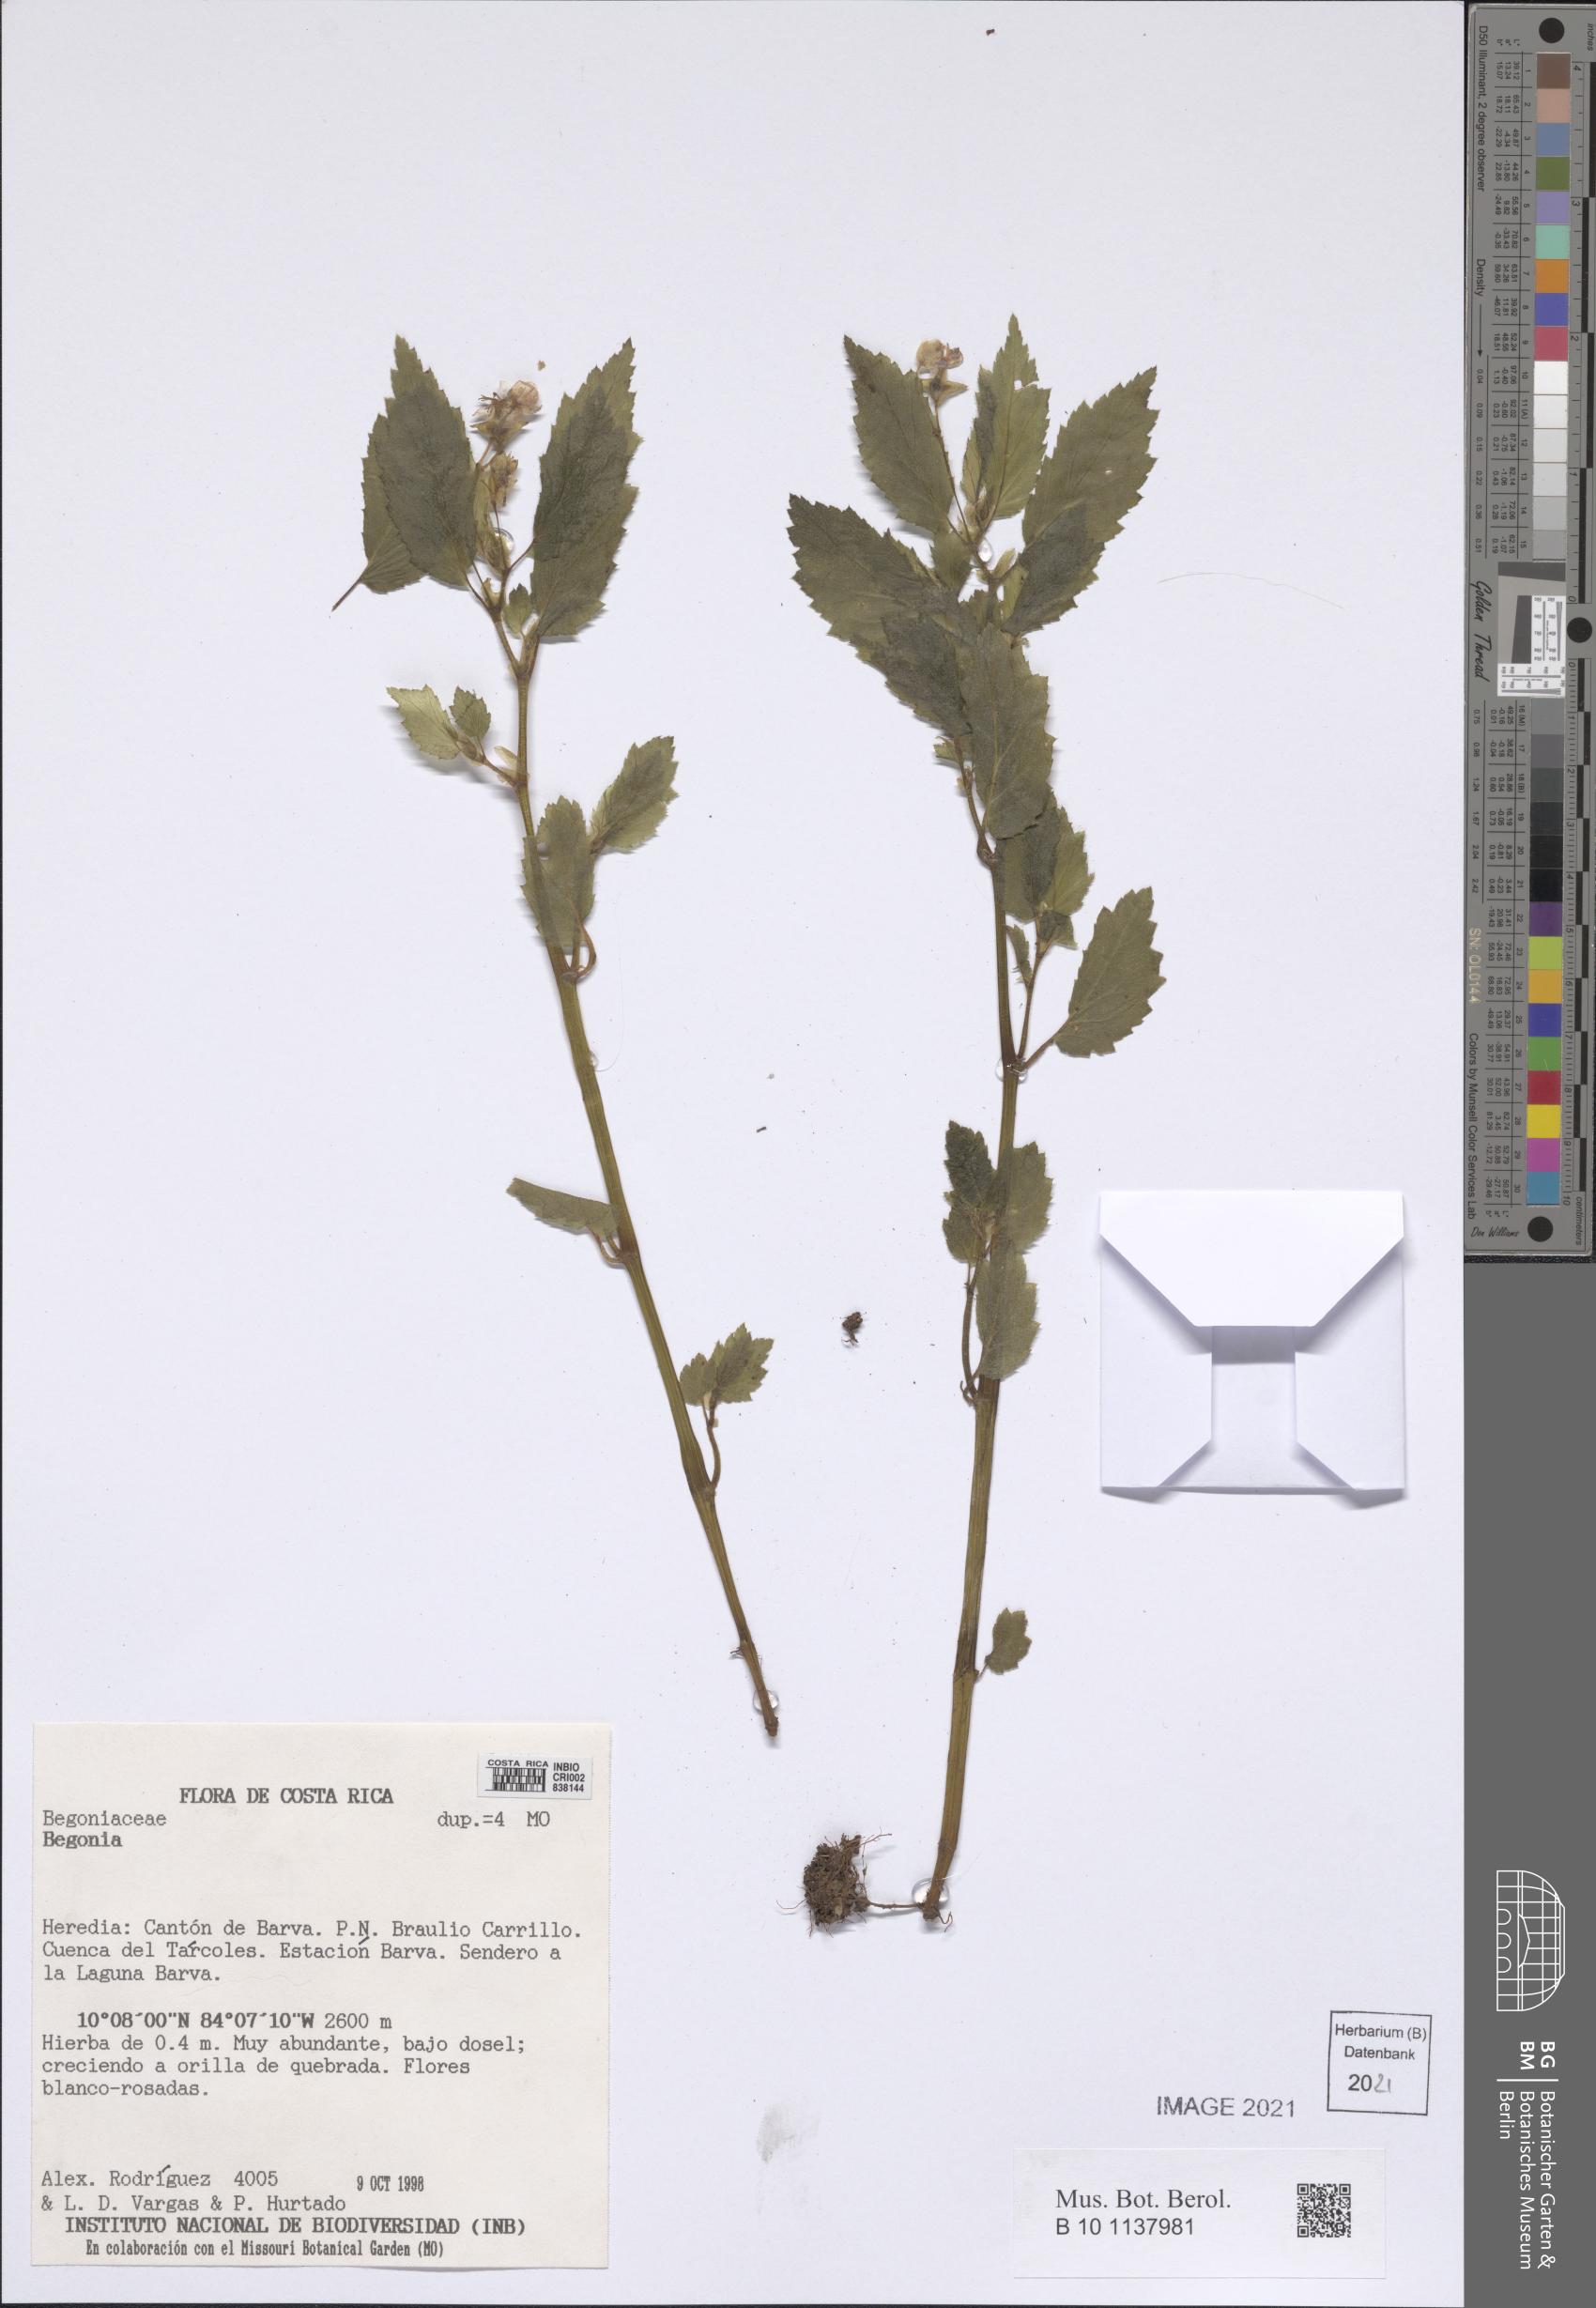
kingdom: Plantae
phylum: Tracheophyta
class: Magnoliopsida
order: Cucurbitales
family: Begoniaceae
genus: Begonia
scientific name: Begonia
